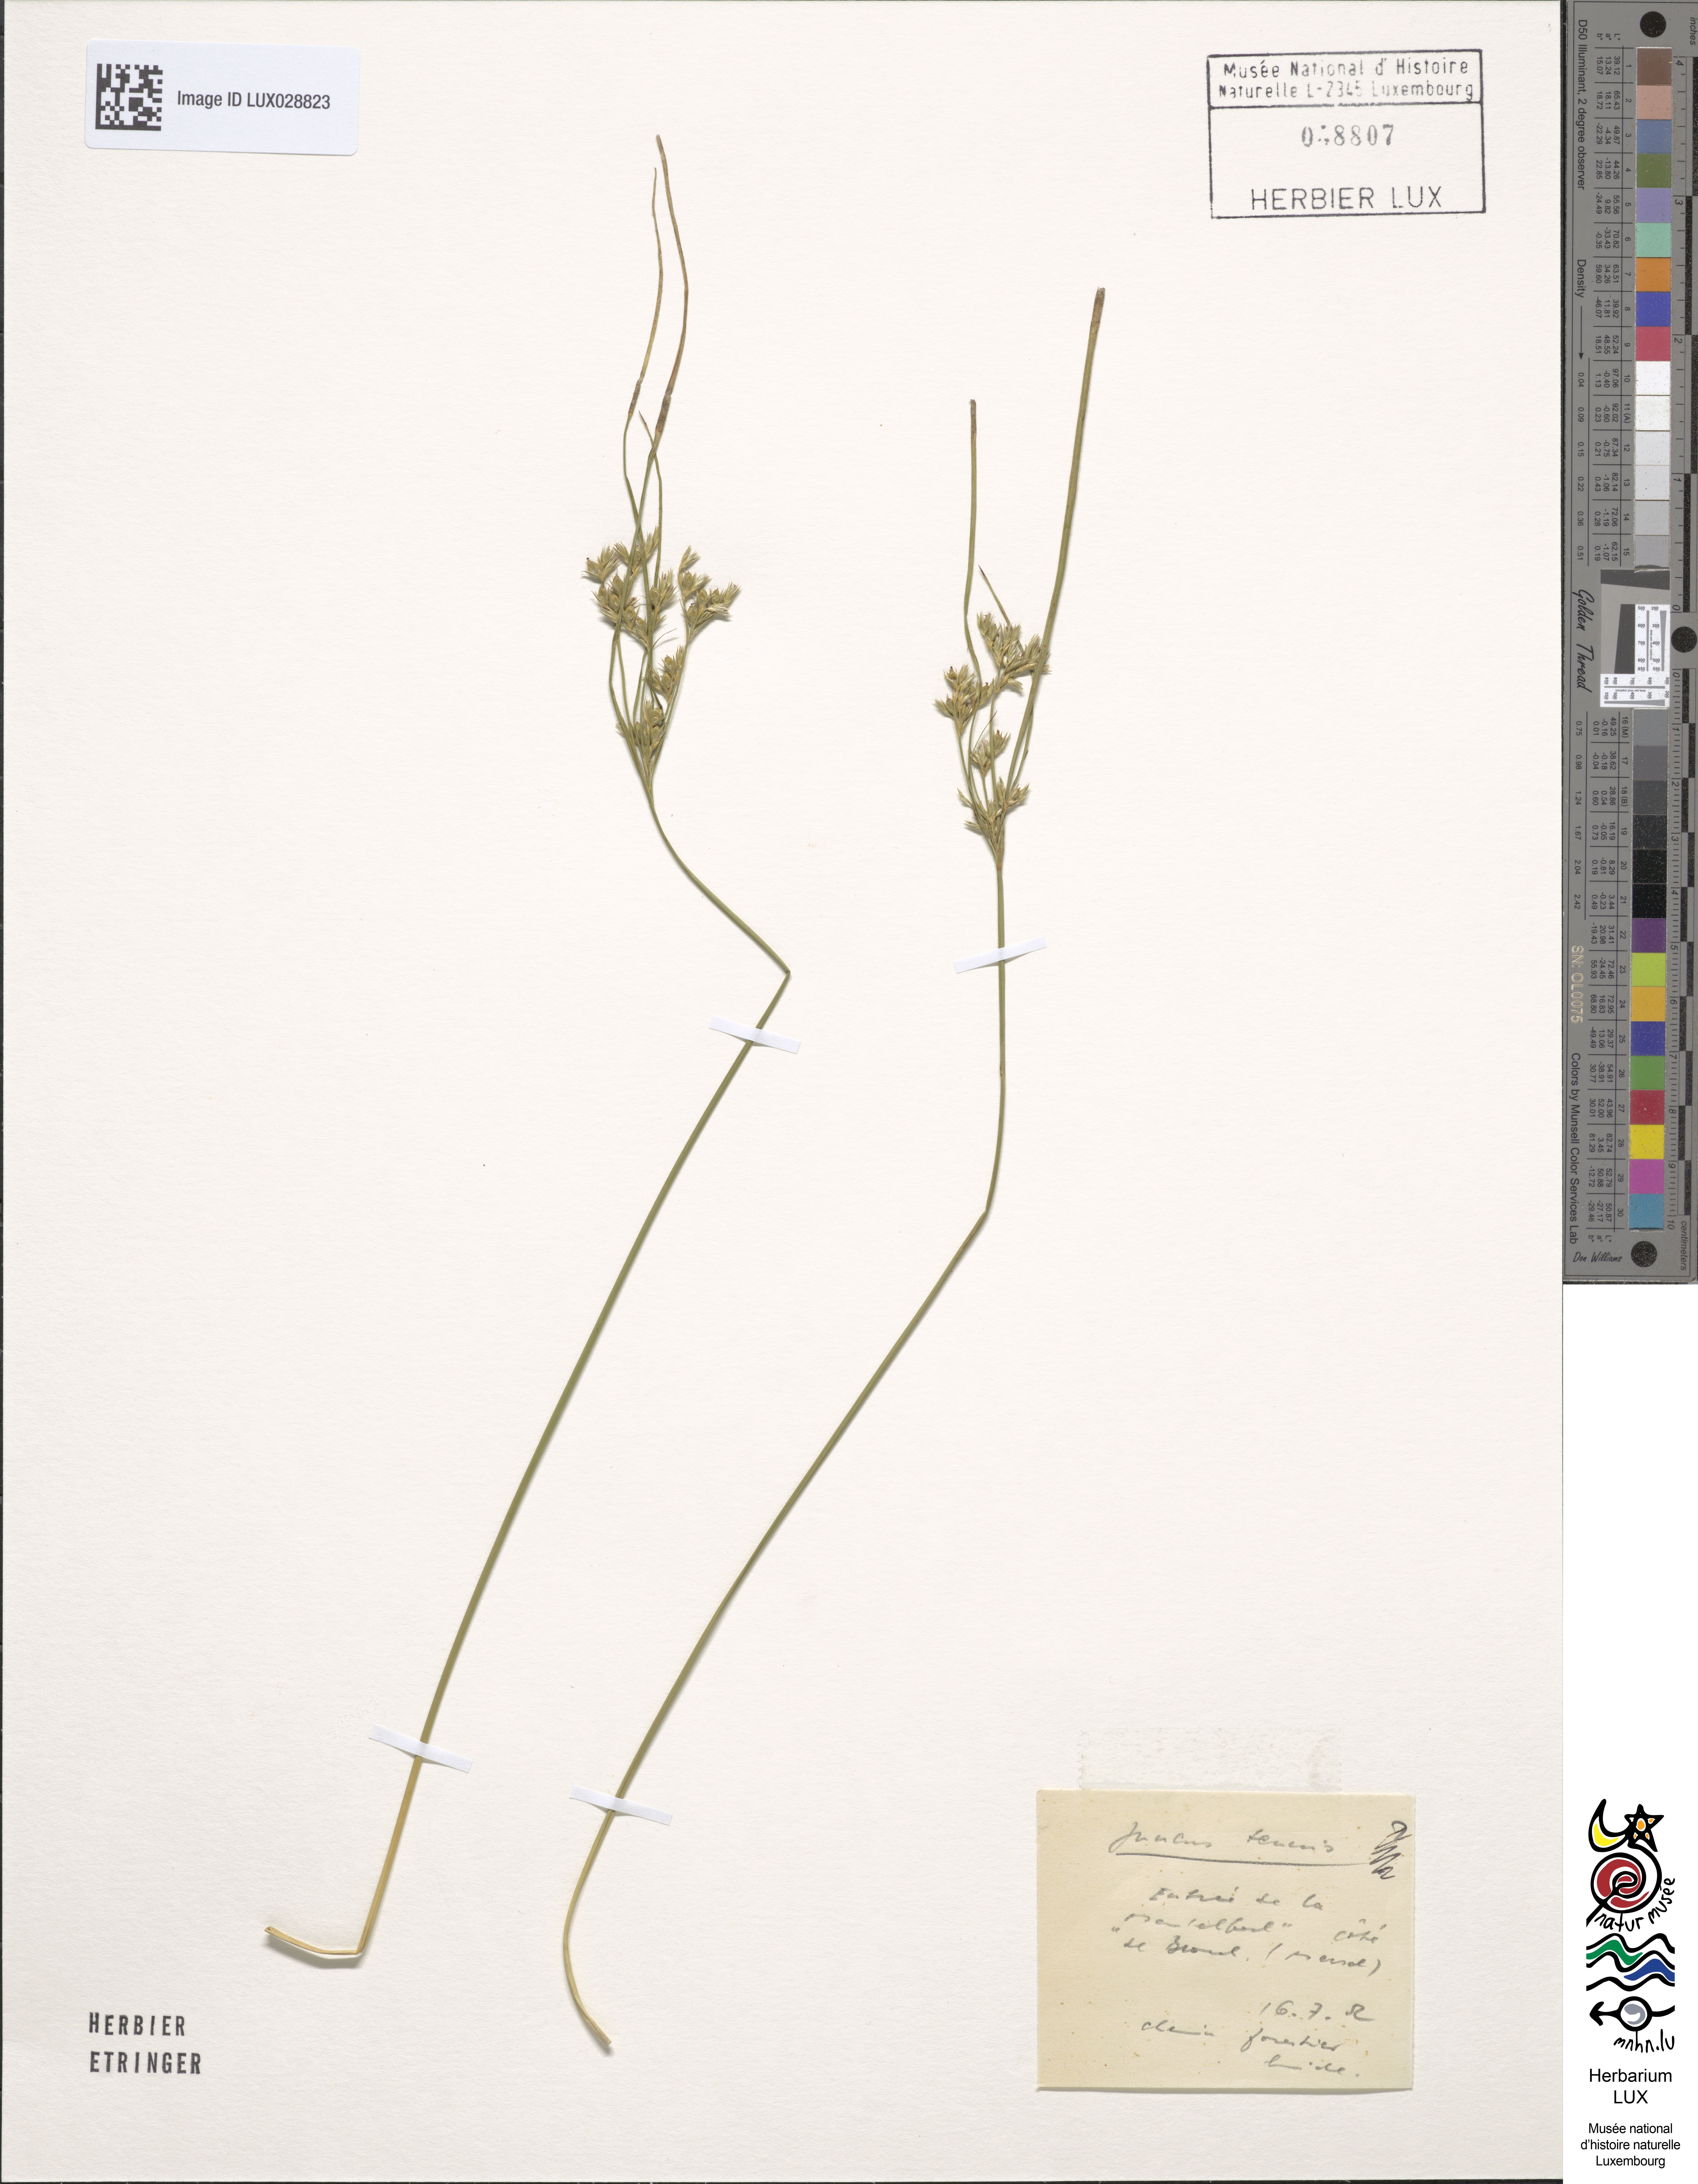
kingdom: Plantae
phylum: Tracheophyta
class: Liliopsida
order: Poales
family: Juncaceae
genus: Juncus
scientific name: Juncus tenuis
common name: Slender rush
